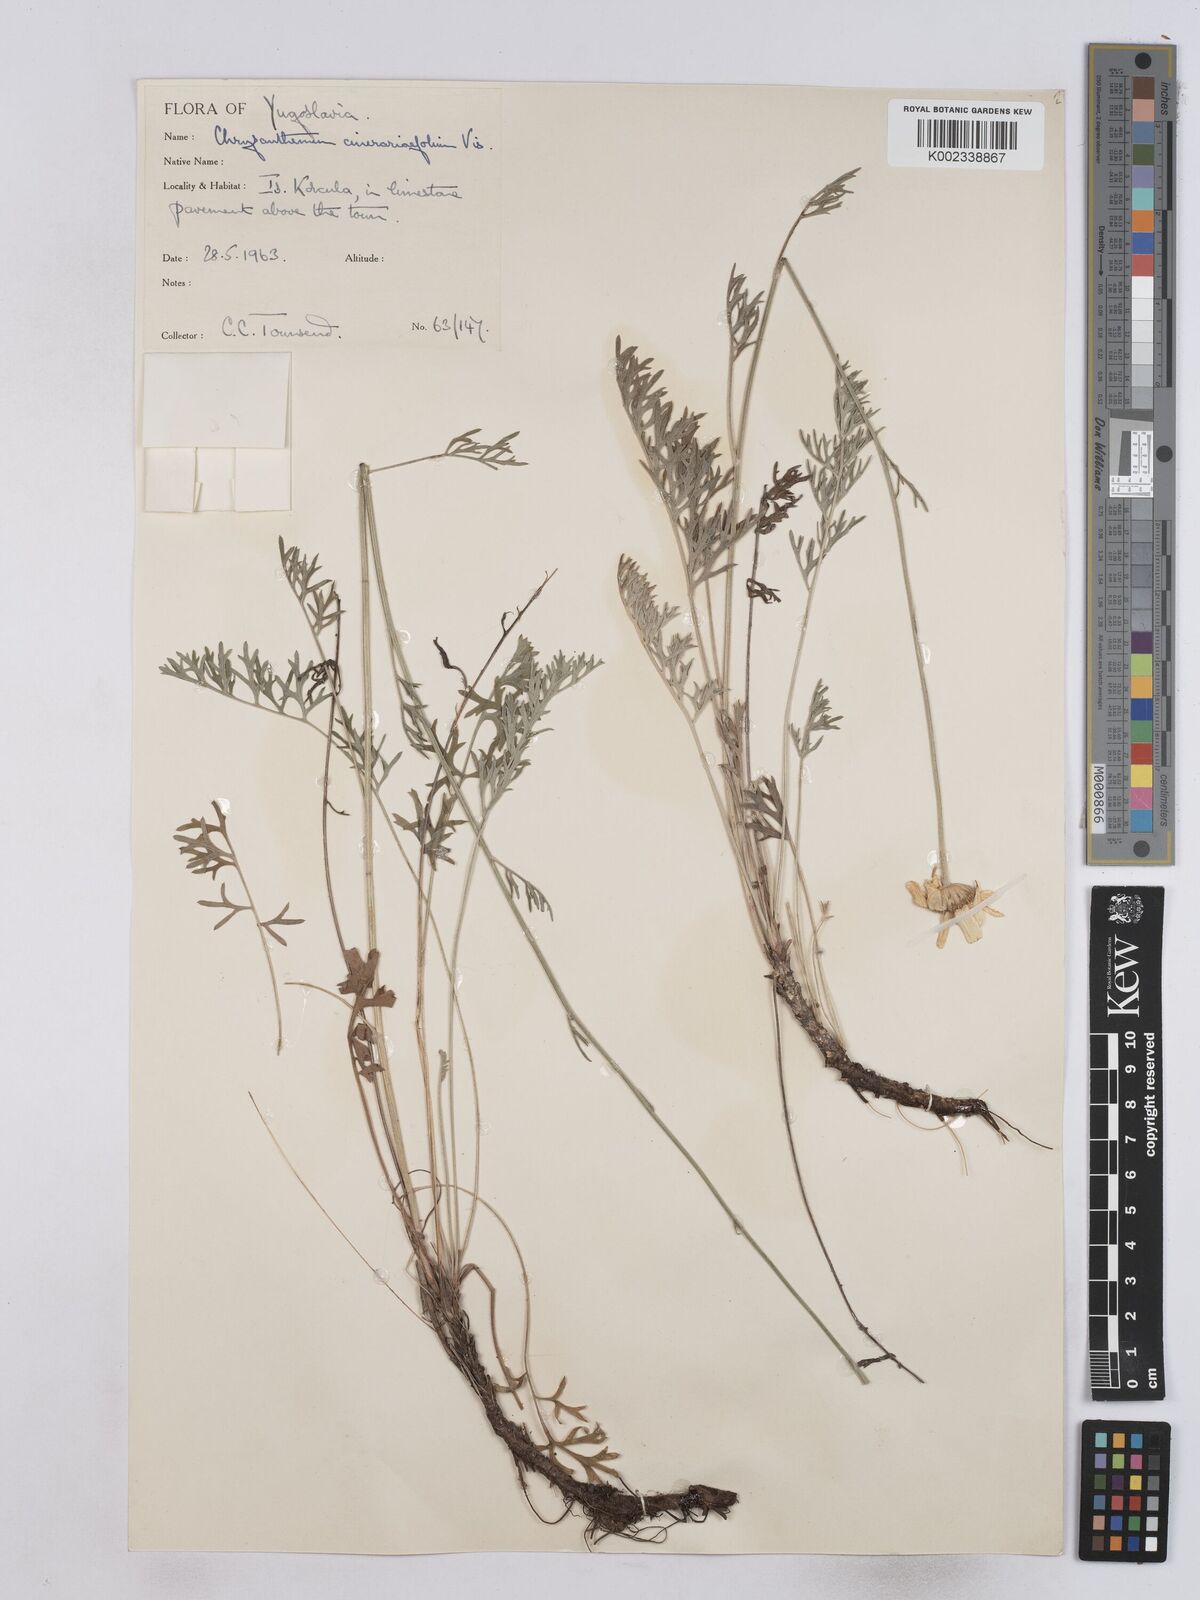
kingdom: Plantae
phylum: Tracheophyta
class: Magnoliopsida
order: Asterales
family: Asteraceae
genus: Tanacetum
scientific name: Tanacetum cinerariifolium
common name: Dalmatian pyrethrum
